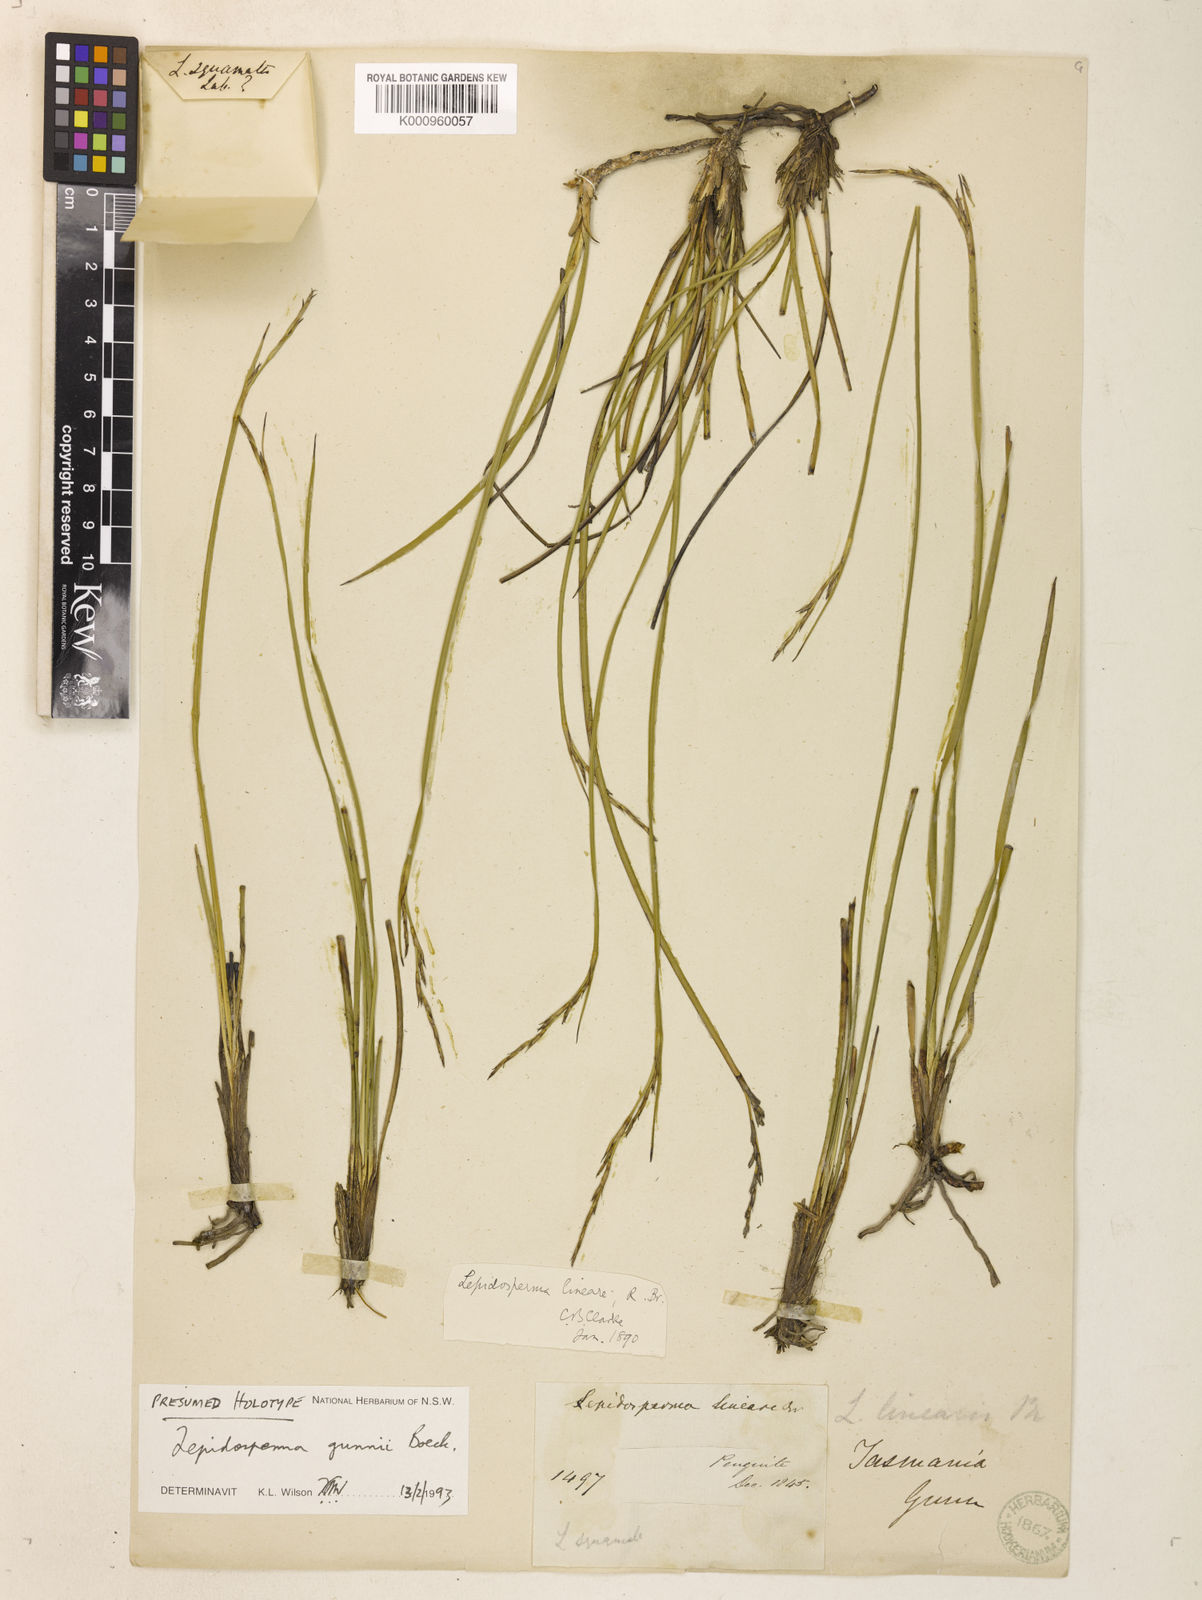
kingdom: Plantae
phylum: Tracheophyta
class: Liliopsida
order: Poales
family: Cyperaceae
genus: Lepidosperma
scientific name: Lepidosperma lineare
